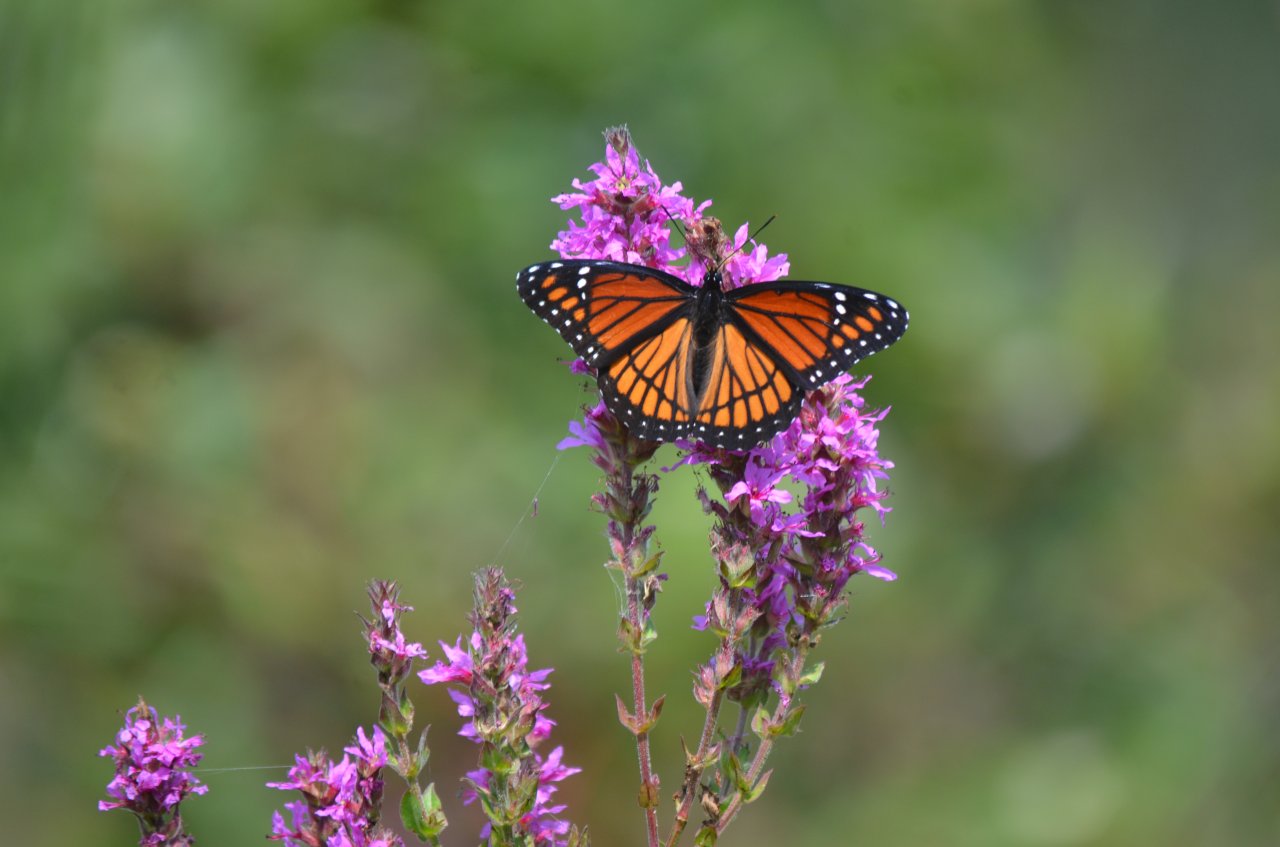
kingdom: Animalia
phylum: Arthropoda
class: Insecta
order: Lepidoptera
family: Nymphalidae
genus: Limenitis
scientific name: Limenitis archippus
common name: Viceroy
